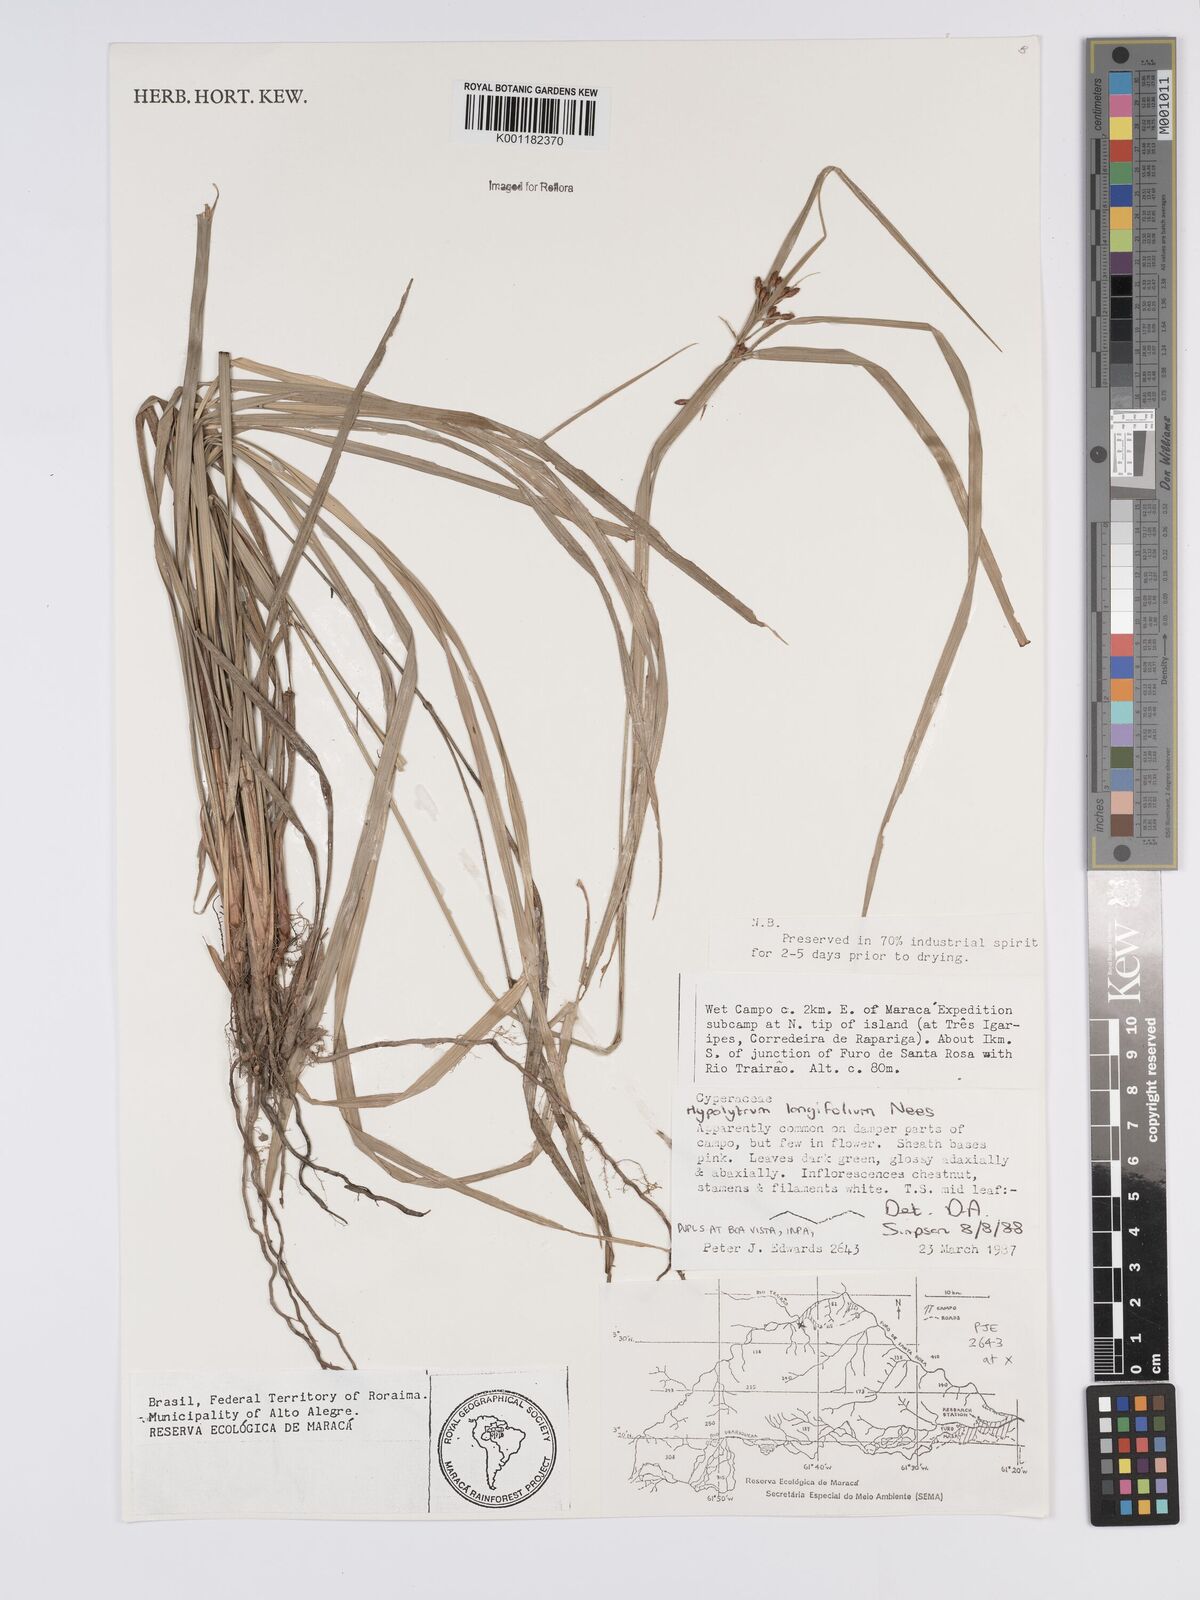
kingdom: Plantae
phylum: Tracheophyta
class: Liliopsida
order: Poales
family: Cyperaceae
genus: Hypolytrum
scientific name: Hypolytrum longifolium
